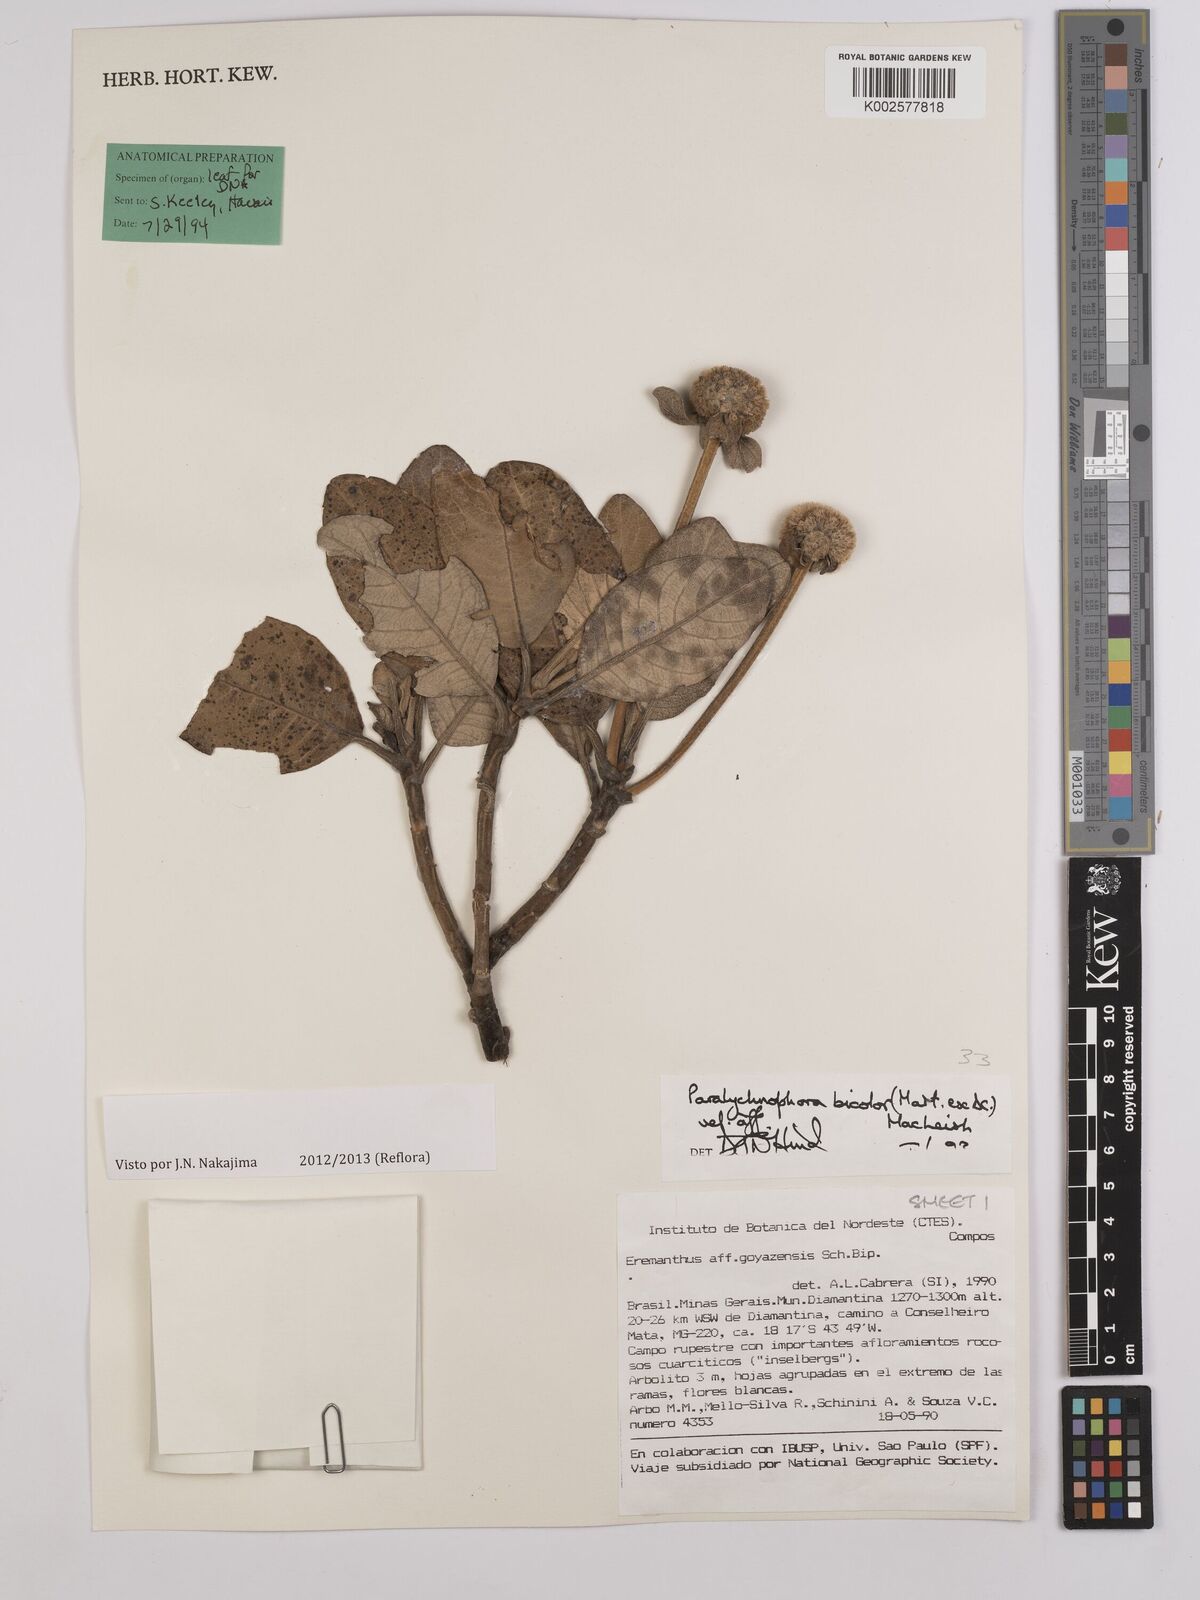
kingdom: Plantae
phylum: Tracheophyta
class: Magnoliopsida
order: Asterales
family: Asteraceae
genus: Paralychnophora
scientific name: Paralychnophora bicolor
